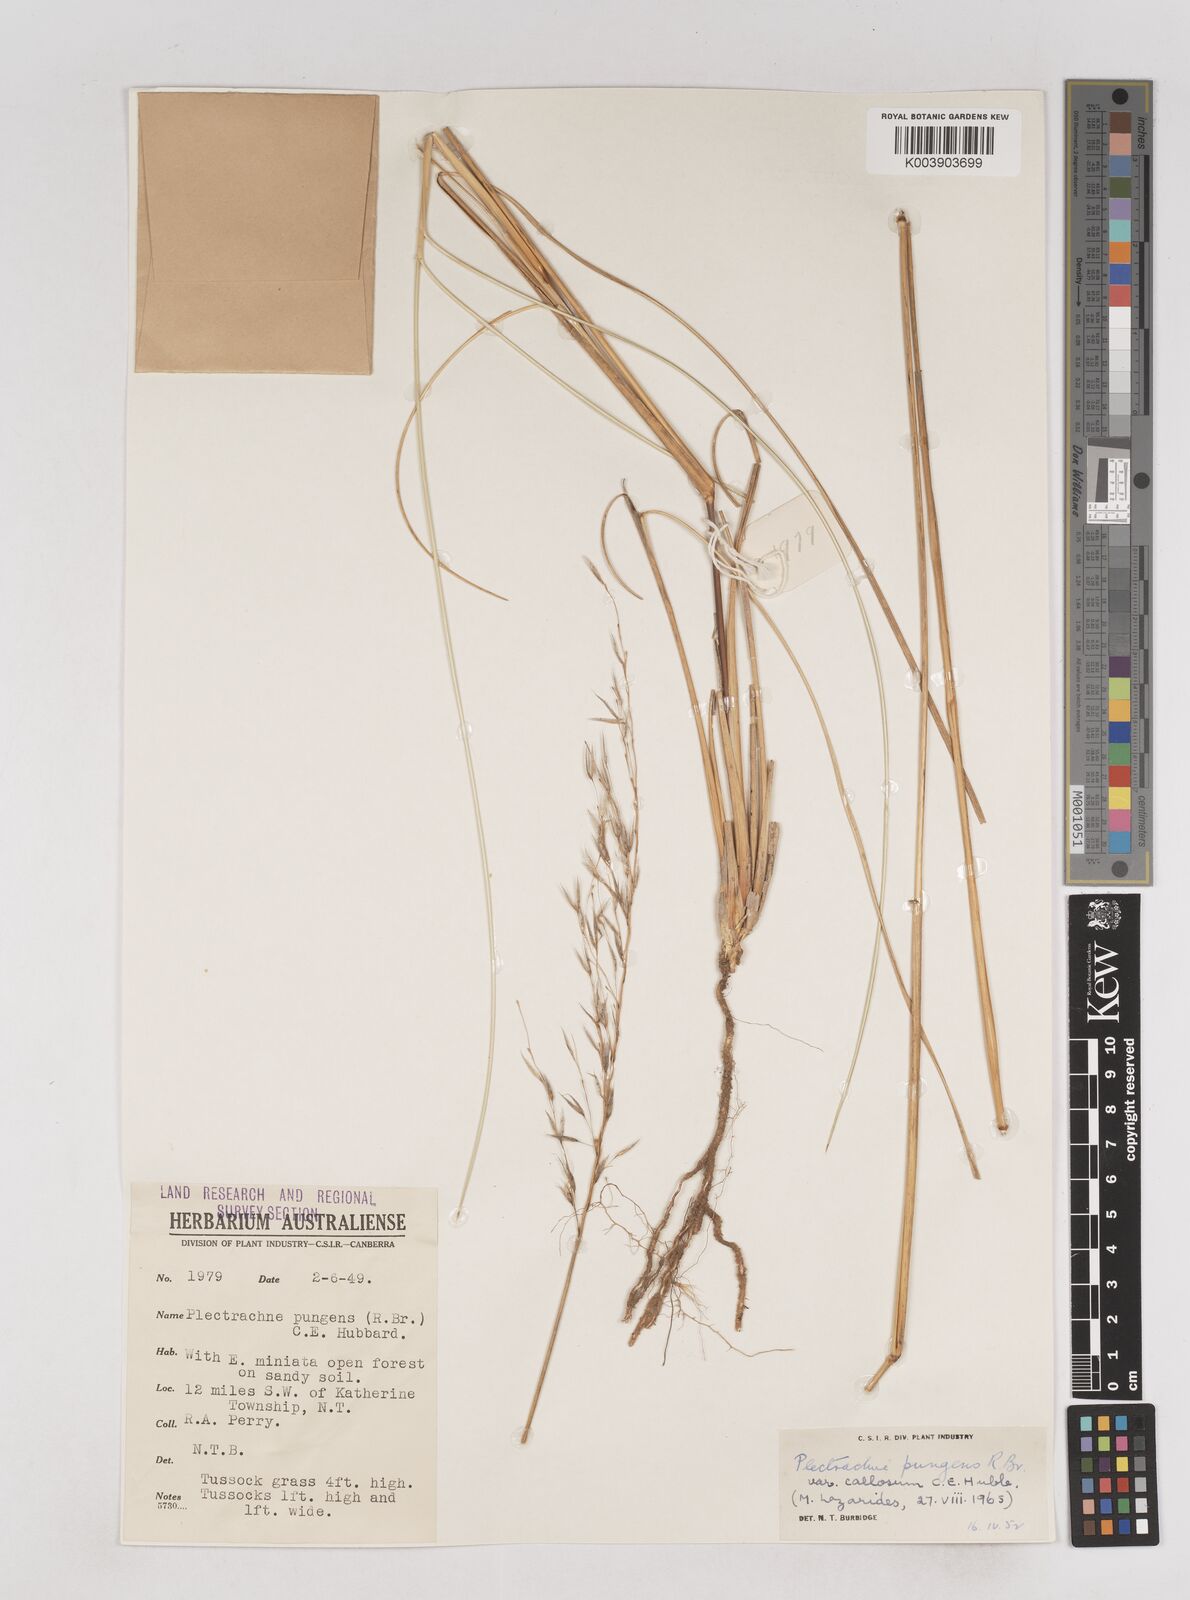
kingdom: Plantae
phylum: Tracheophyta
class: Liliopsida
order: Poales
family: Poaceae
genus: Triodia
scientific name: Triodia bitextura
